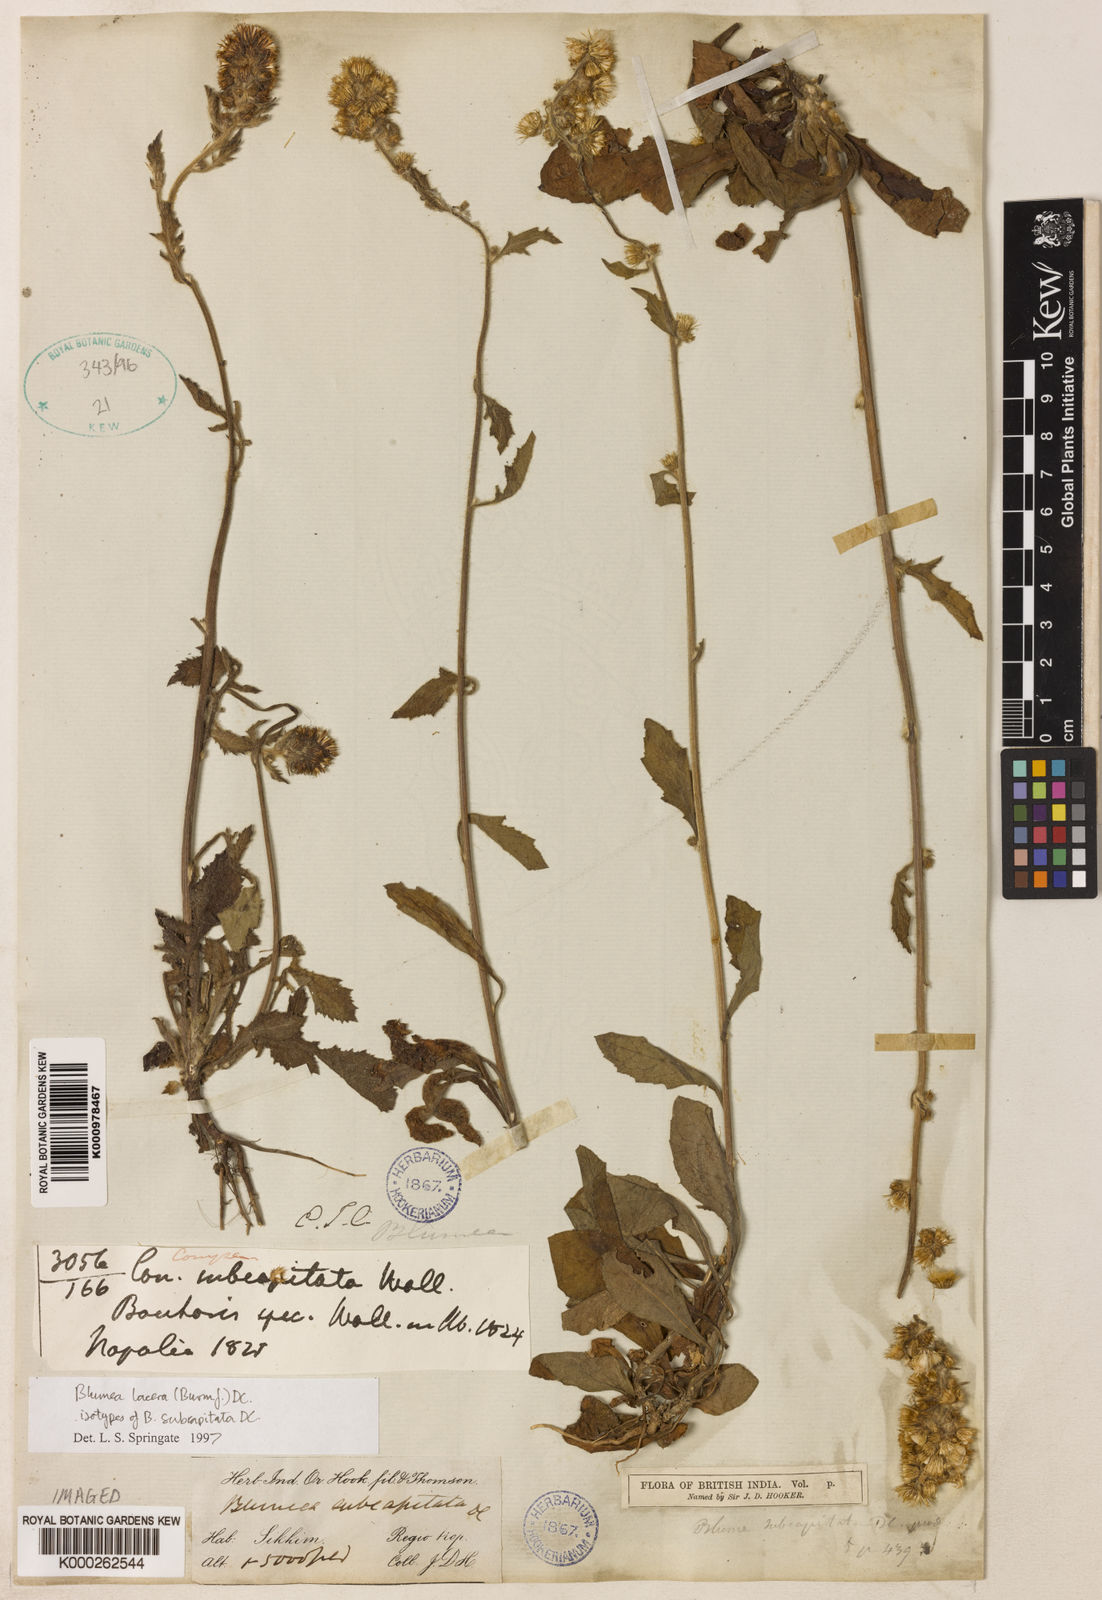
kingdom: Plantae
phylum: Tracheophyta
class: Magnoliopsida
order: Asterales
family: Asteraceae
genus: Blumea
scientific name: Blumea lacera
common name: Malay blumea
